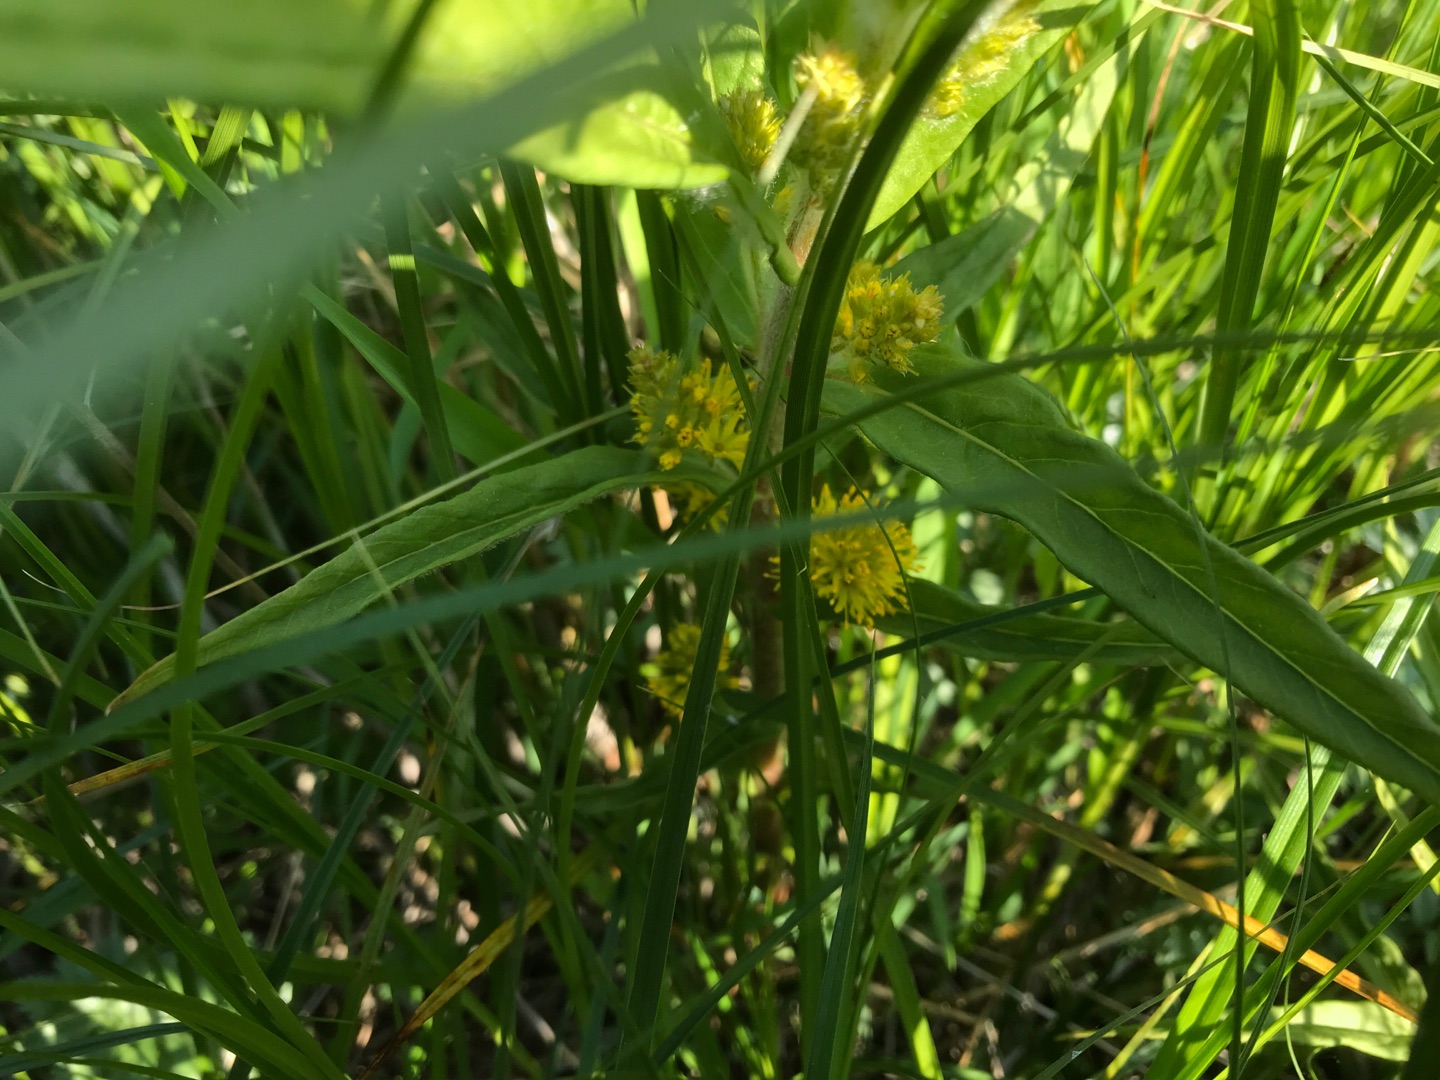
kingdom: Plantae
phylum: Tracheophyta
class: Magnoliopsida
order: Ericales
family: Primulaceae
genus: Lysimachia
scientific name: Lysimachia thyrsiflora
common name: Dusk-fredløs
